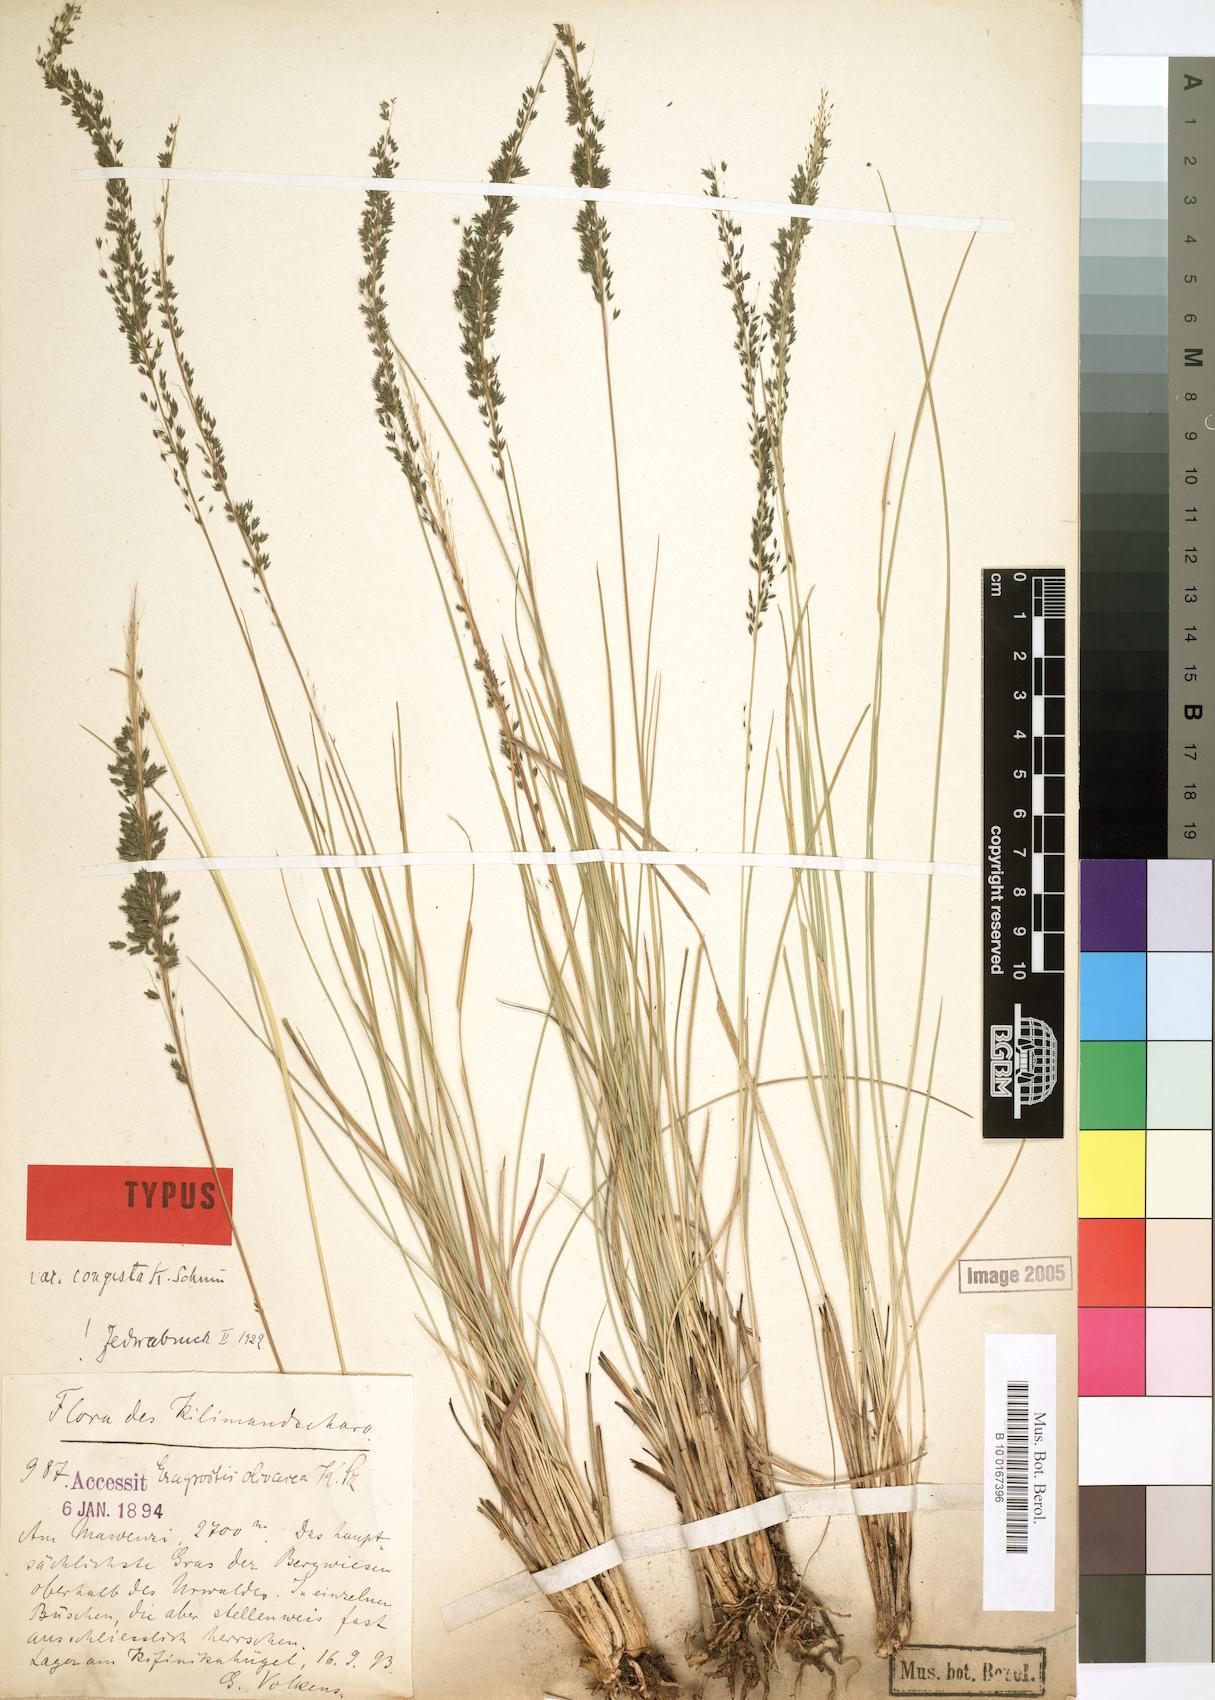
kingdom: Plantae
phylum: Tracheophyta
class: Liliopsida
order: Poales
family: Poaceae
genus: Eragrostis
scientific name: Eragrostis olivacea
